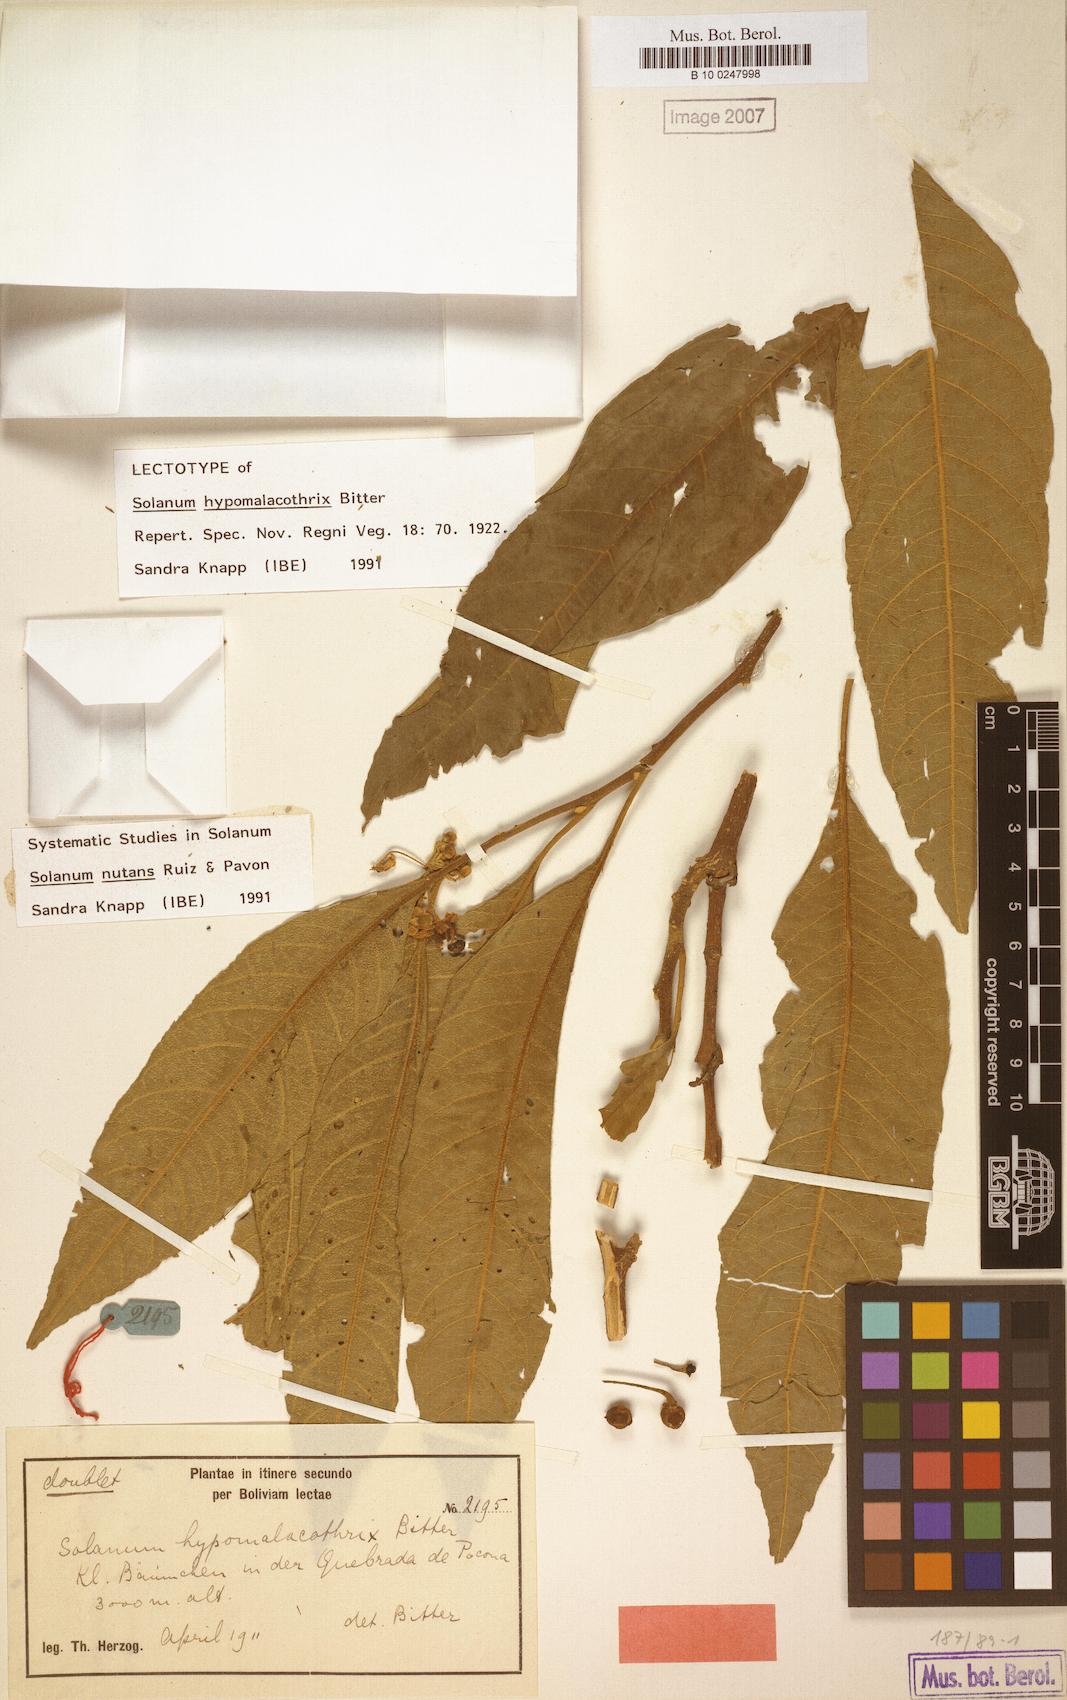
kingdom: Plantae
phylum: Tracheophyta
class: Magnoliopsida
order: Solanales
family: Solanaceae
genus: Solanum
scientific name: Solanum nutans
